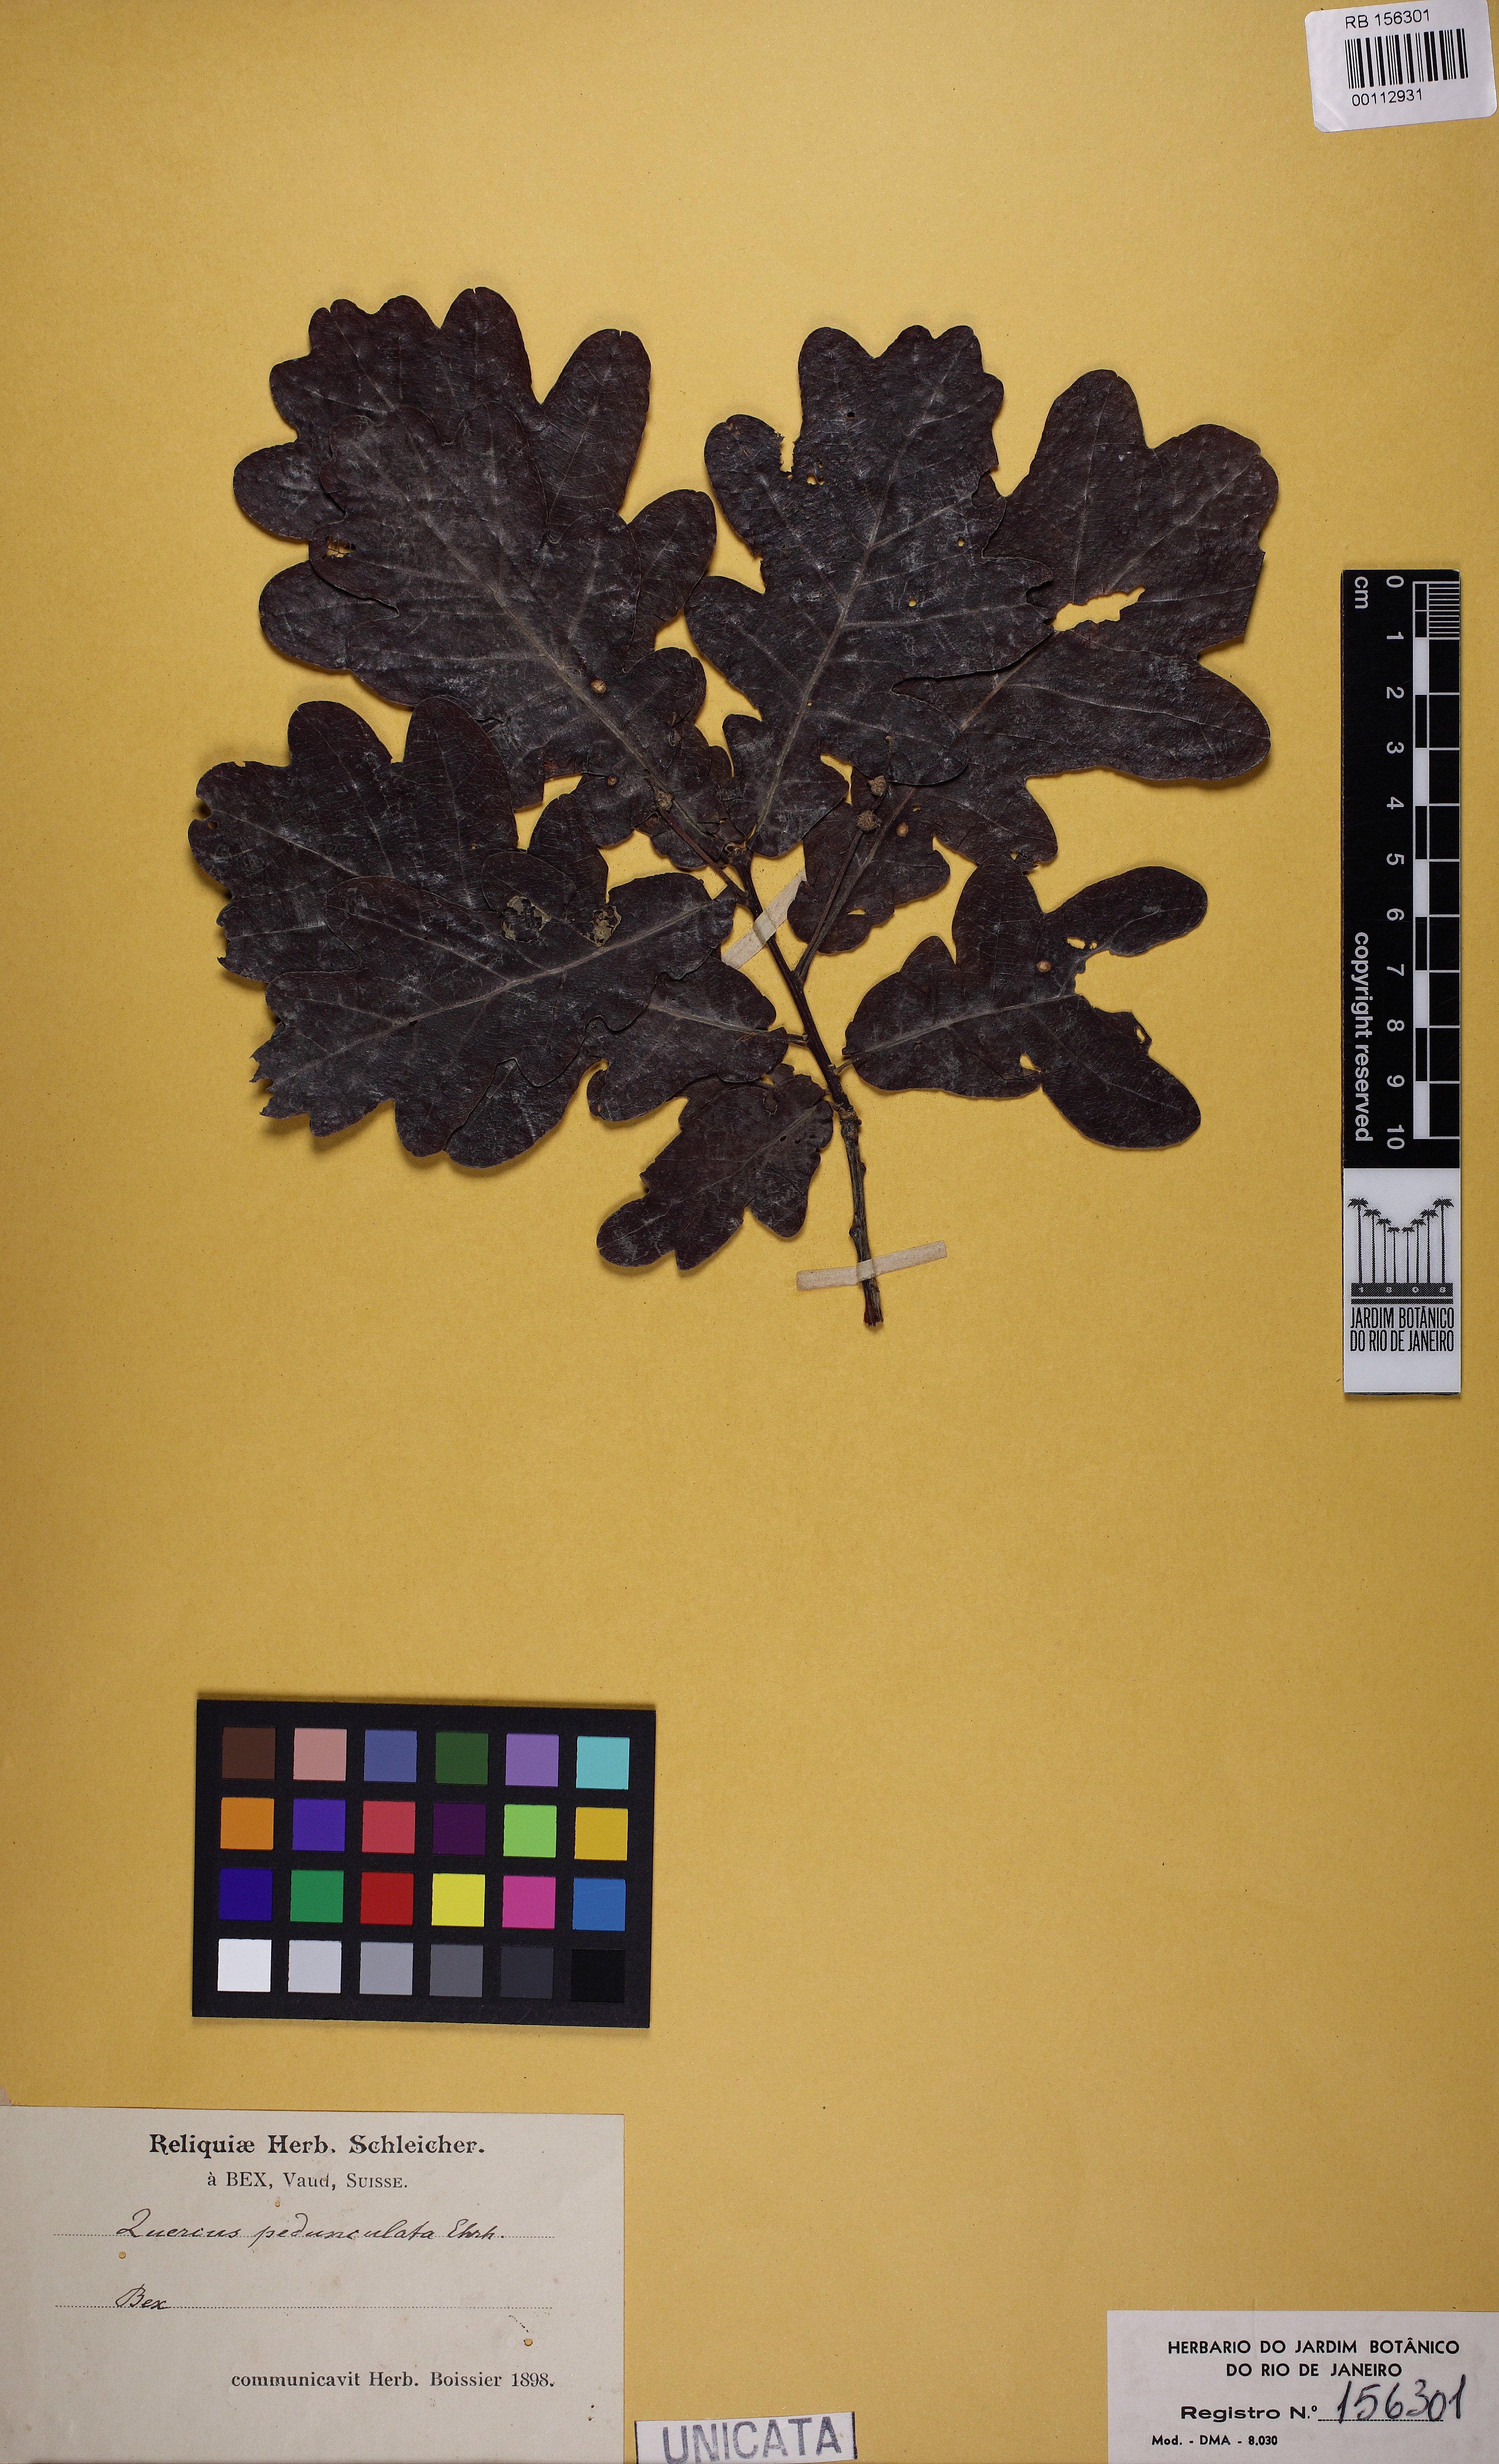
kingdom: Plantae
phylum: Tracheophyta
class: Magnoliopsida
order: Fagales
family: Fagaceae
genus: Quercus
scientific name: Quercus robur
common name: Pedunculate oak
